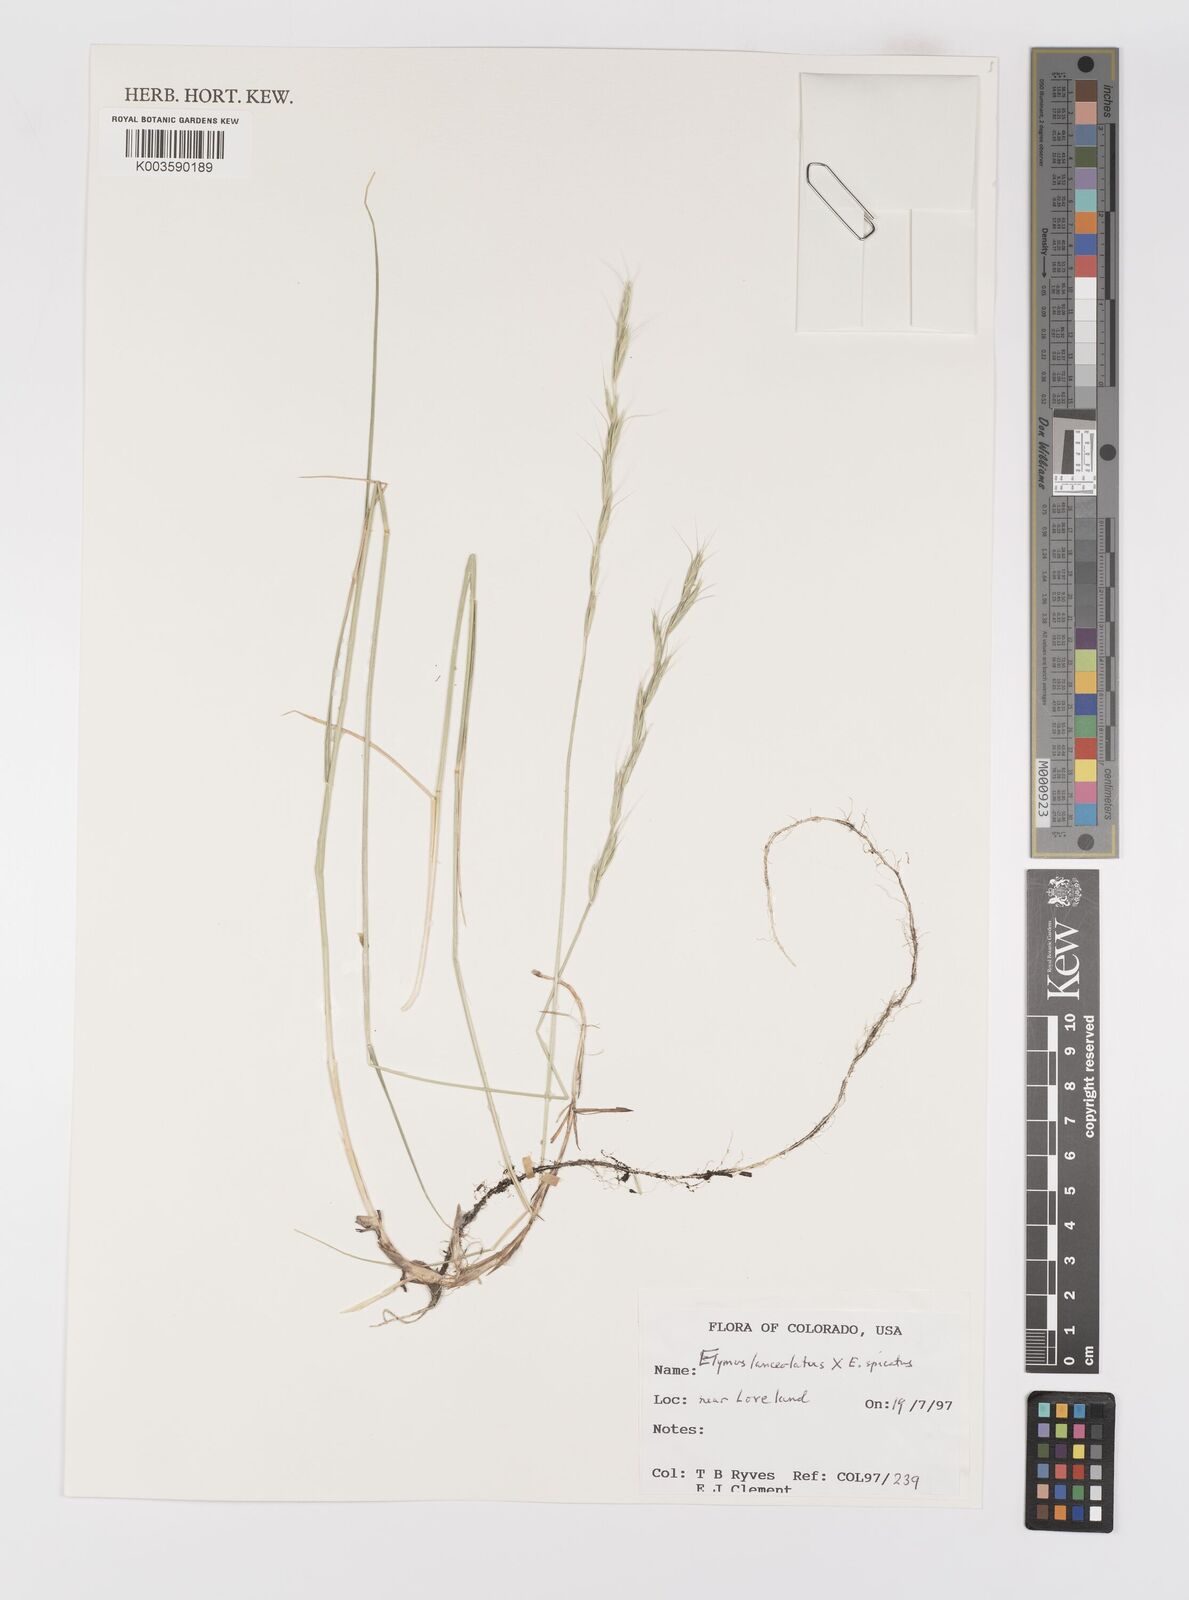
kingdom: Plantae
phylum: Tracheophyta
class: Liliopsida
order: Poales
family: Poaceae
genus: Pseudoroegneria
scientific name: Pseudoroegneria spicata
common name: Bluebunch wheatgrass
